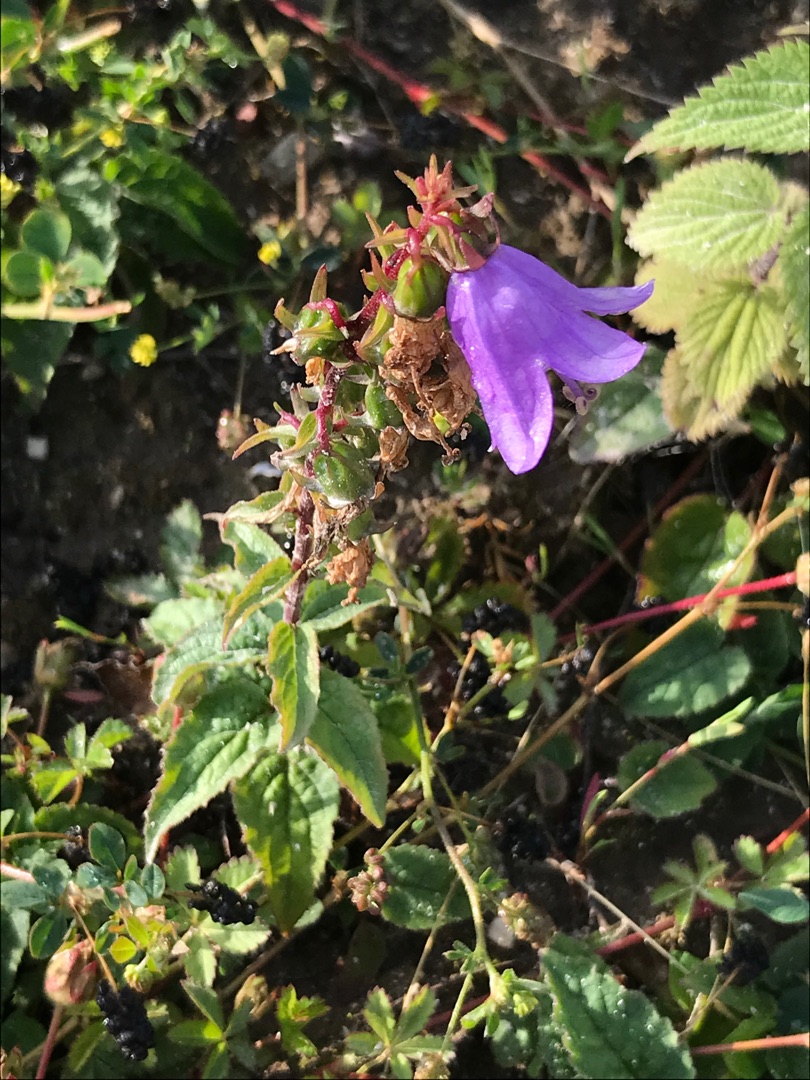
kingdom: Plantae
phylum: Tracheophyta
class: Magnoliopsida
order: Asterales
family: Campanulaceae
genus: Campanula
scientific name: Campanula rapunculoides
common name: Ensidig klokke
